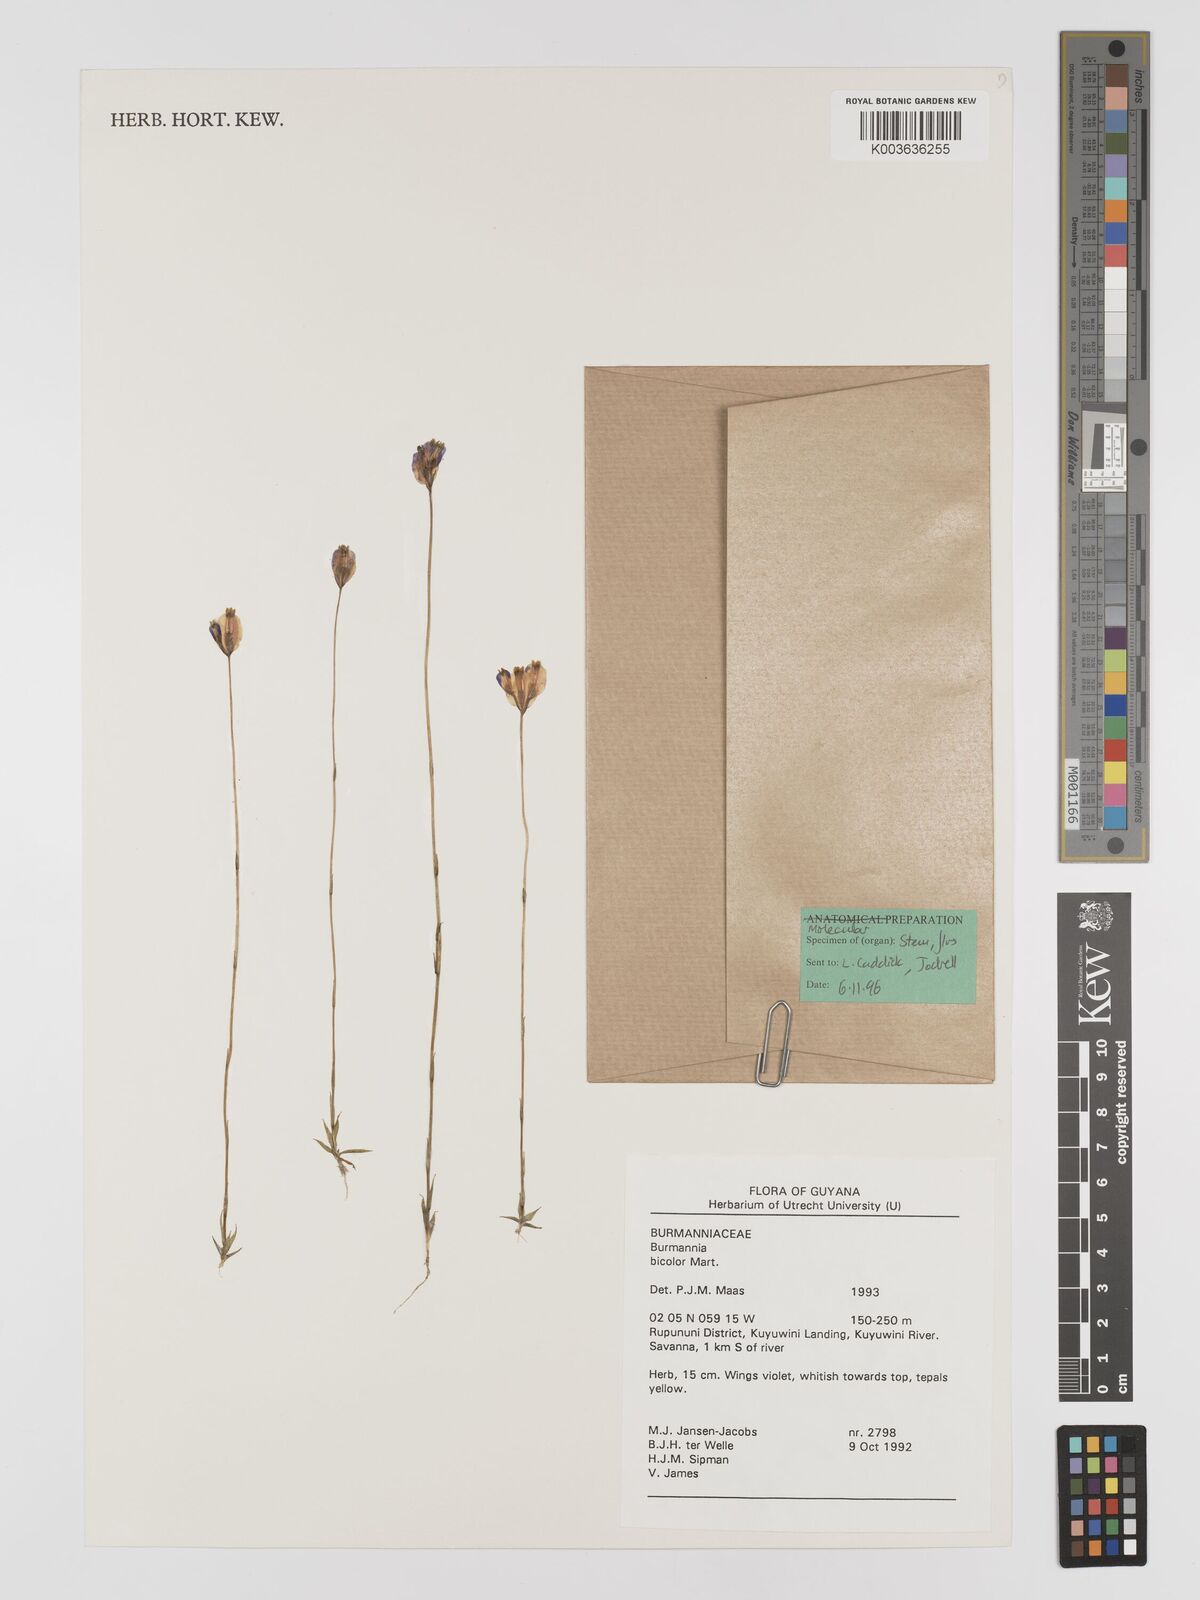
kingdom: Plantae
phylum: Tracheophyta
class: Liliopsida
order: Dioscoreales
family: Burmanniaceae
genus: Burmannia
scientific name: Burmannia bicolor
